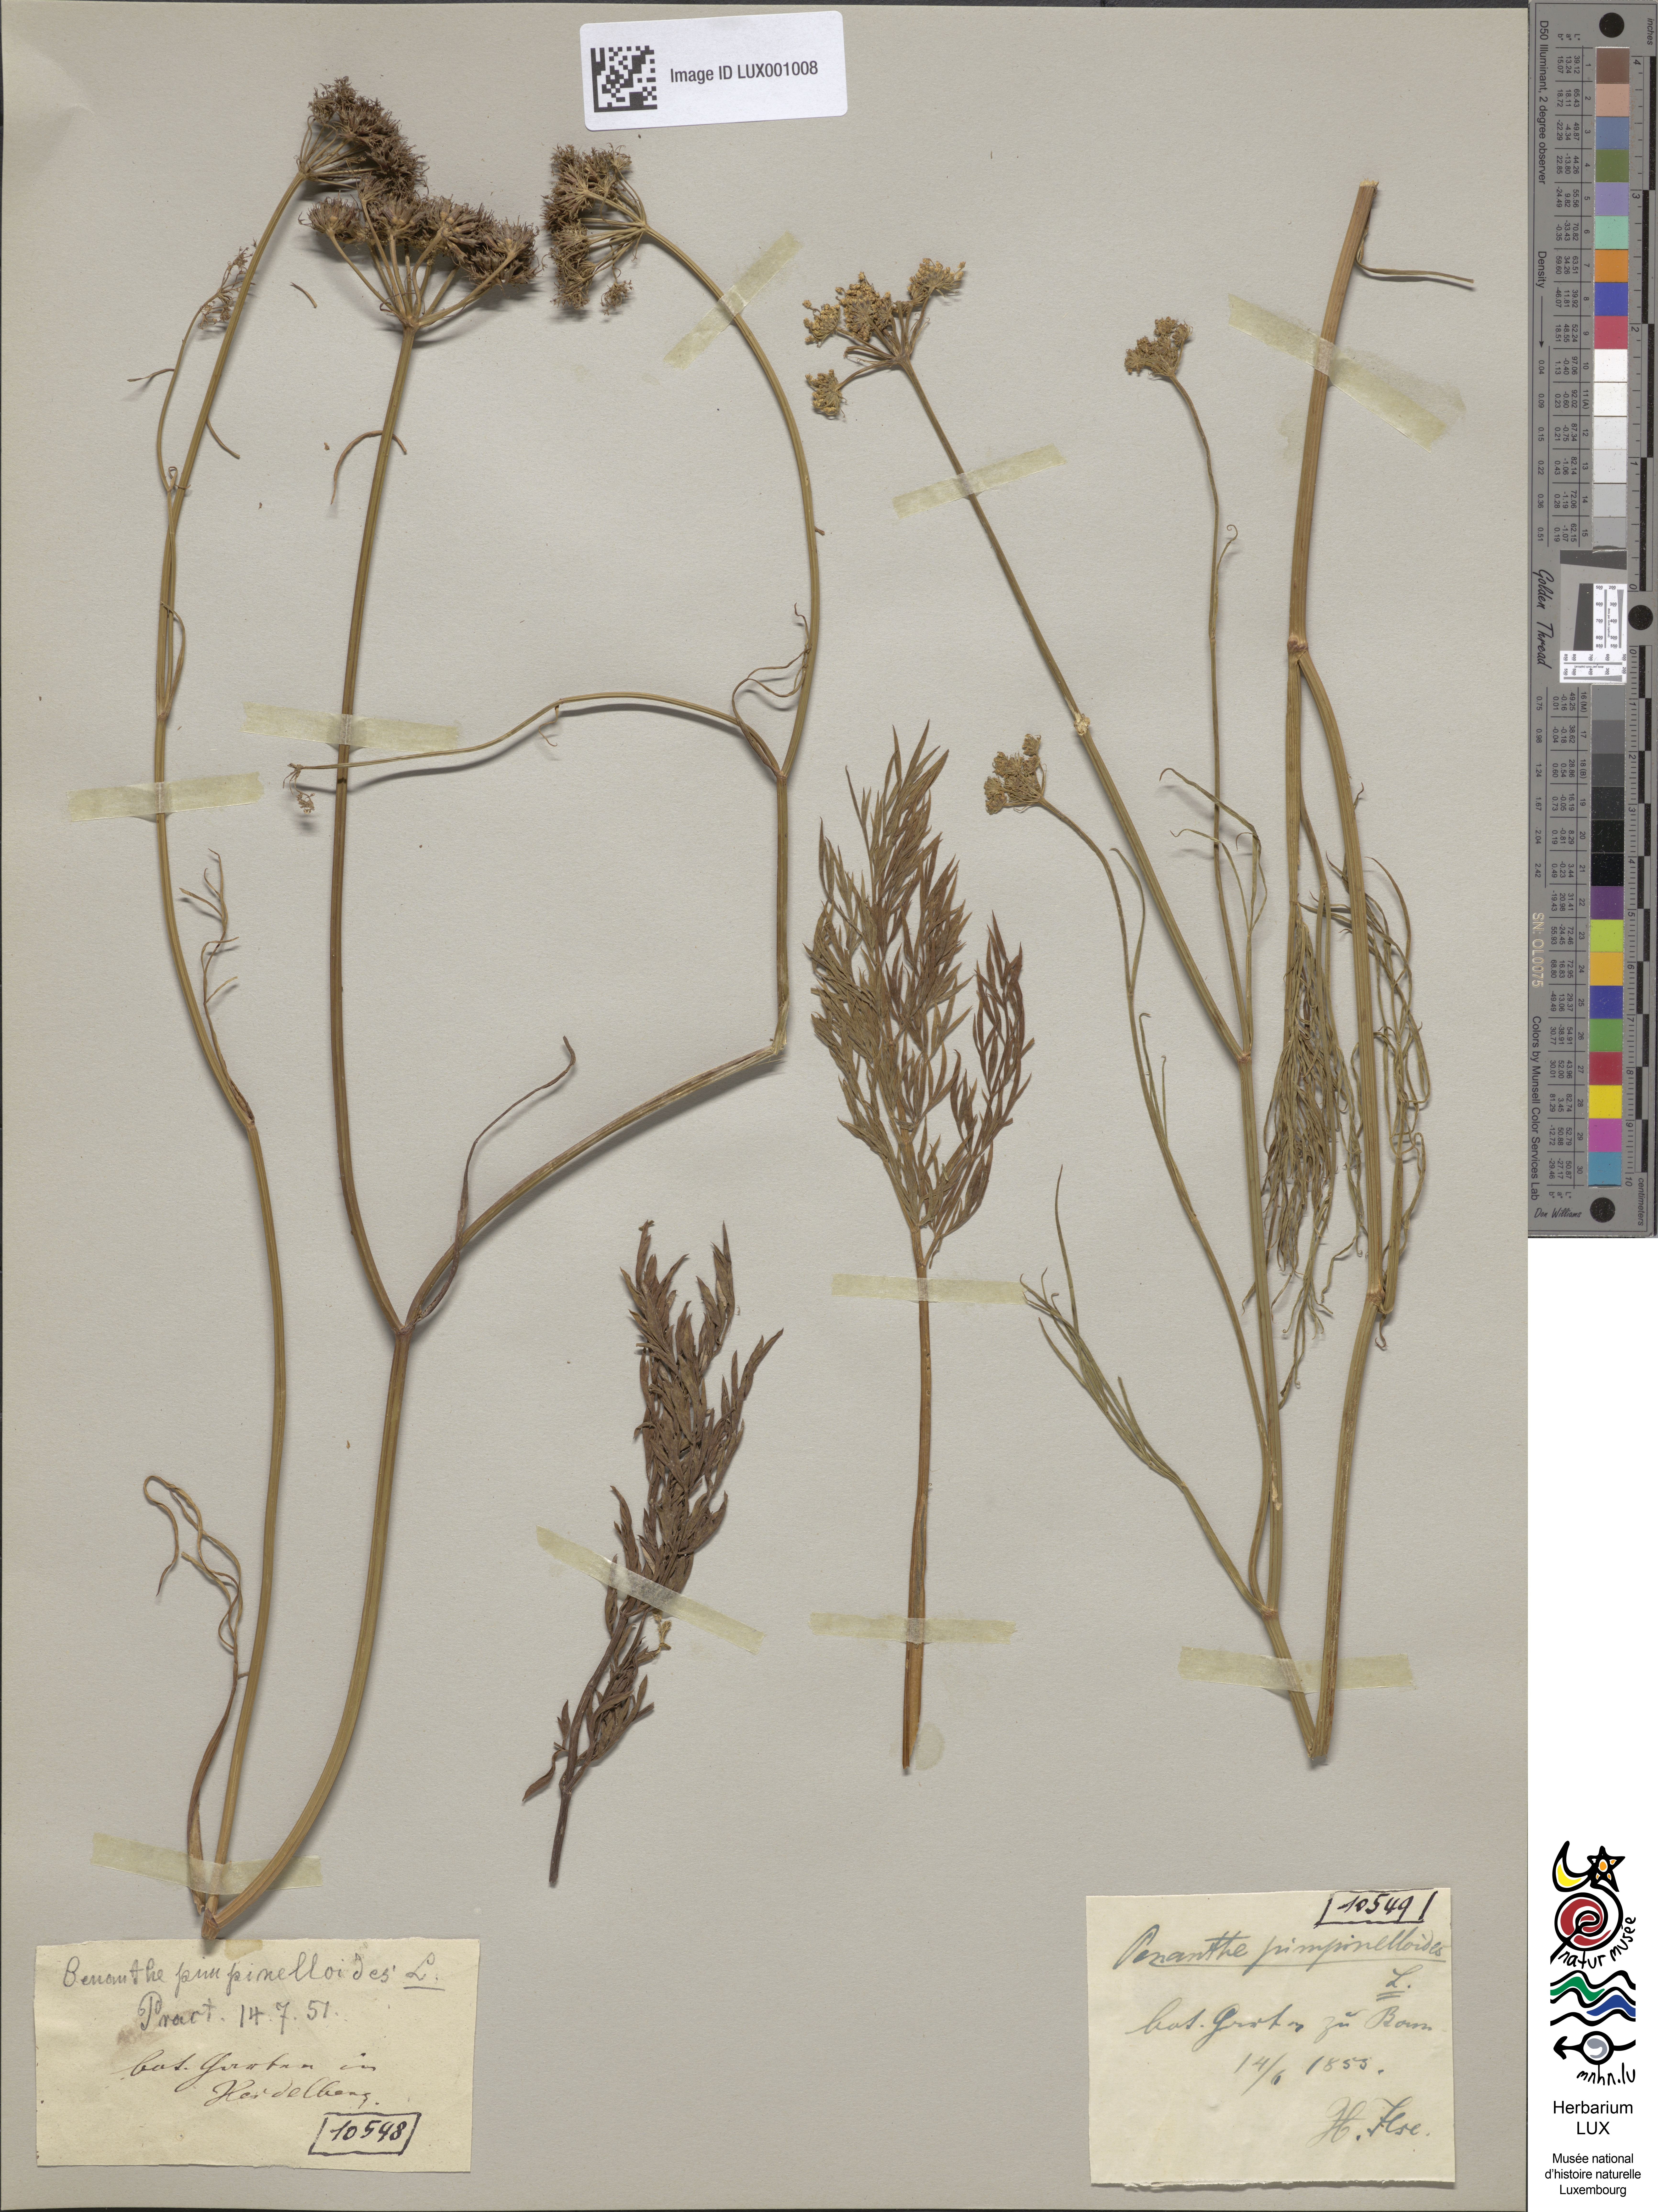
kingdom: Plantae
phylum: Tracheophyta
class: Magnoliopsida
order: Apiales
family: Apiaceae
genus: Oenanthe
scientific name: Oenanthe pimpinelloides
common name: Corky-fruited water-dropwort
